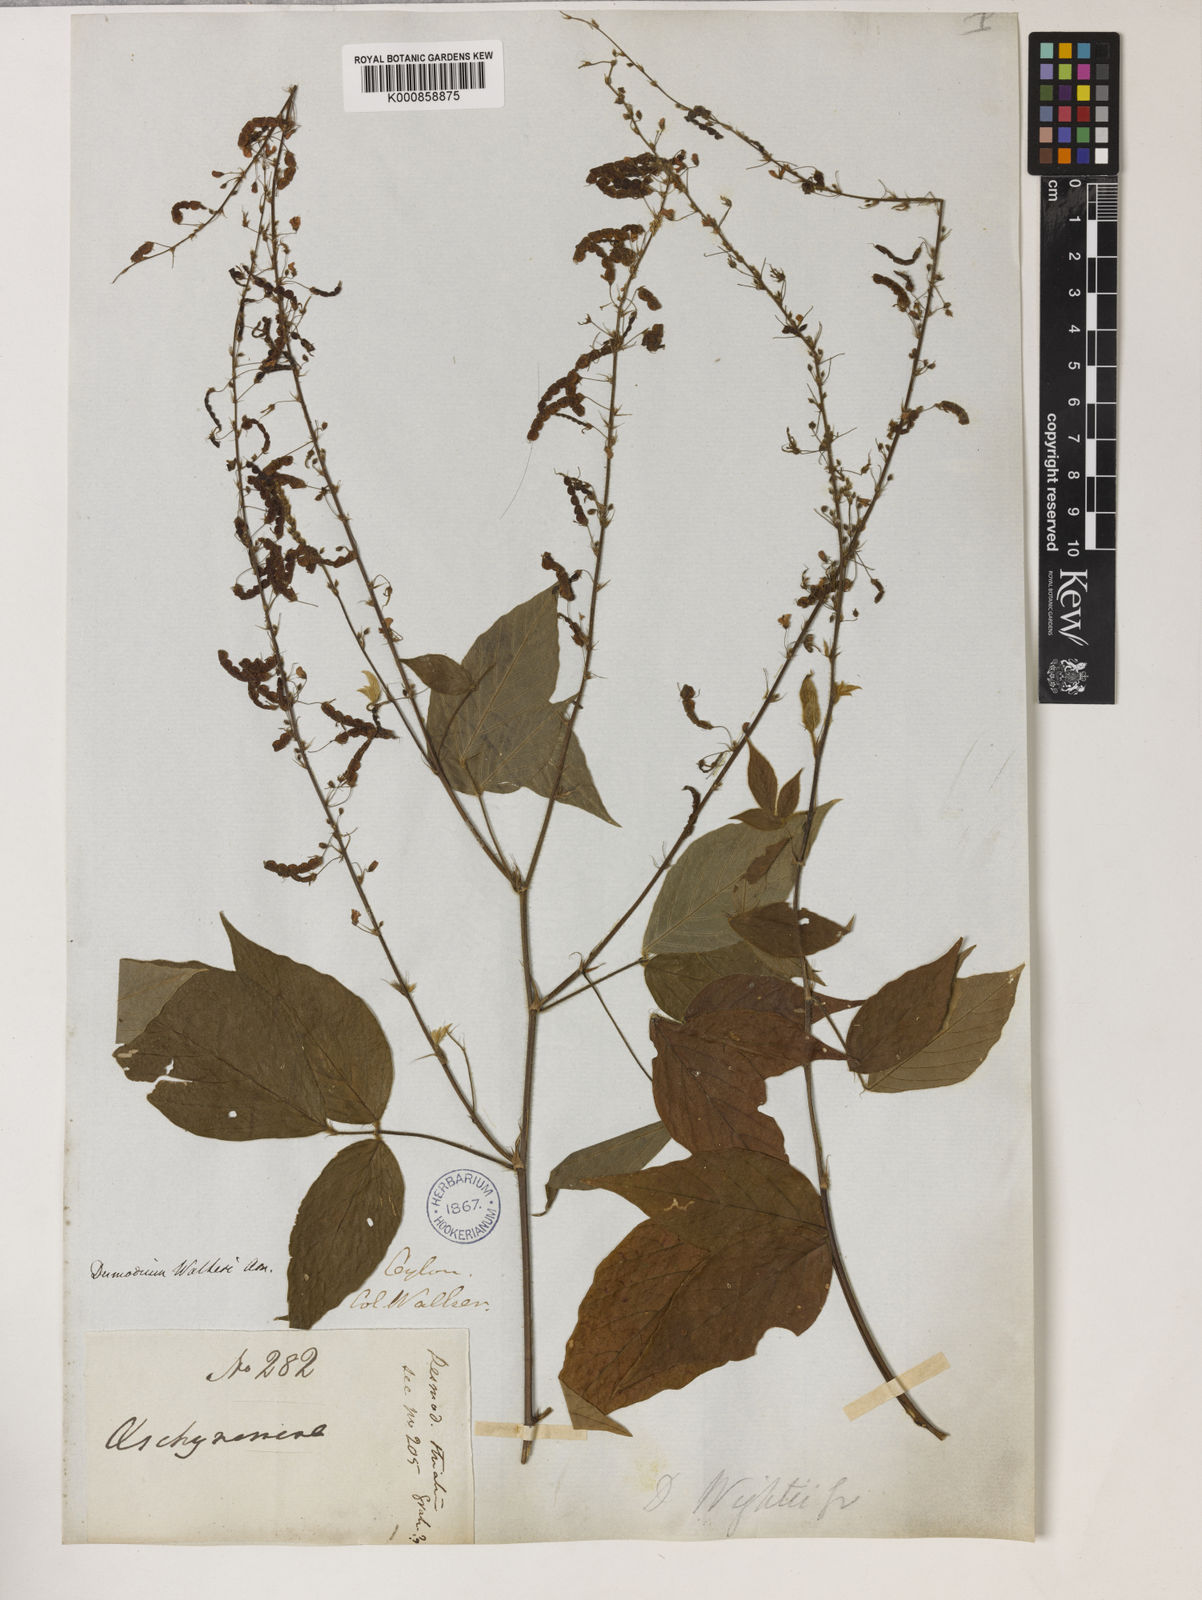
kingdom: Plantae
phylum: Tracheophyta
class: Magnoliopsida
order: Fabales
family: Fabaceae
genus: Pleurolobus
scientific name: Pleurolobus pryonii
